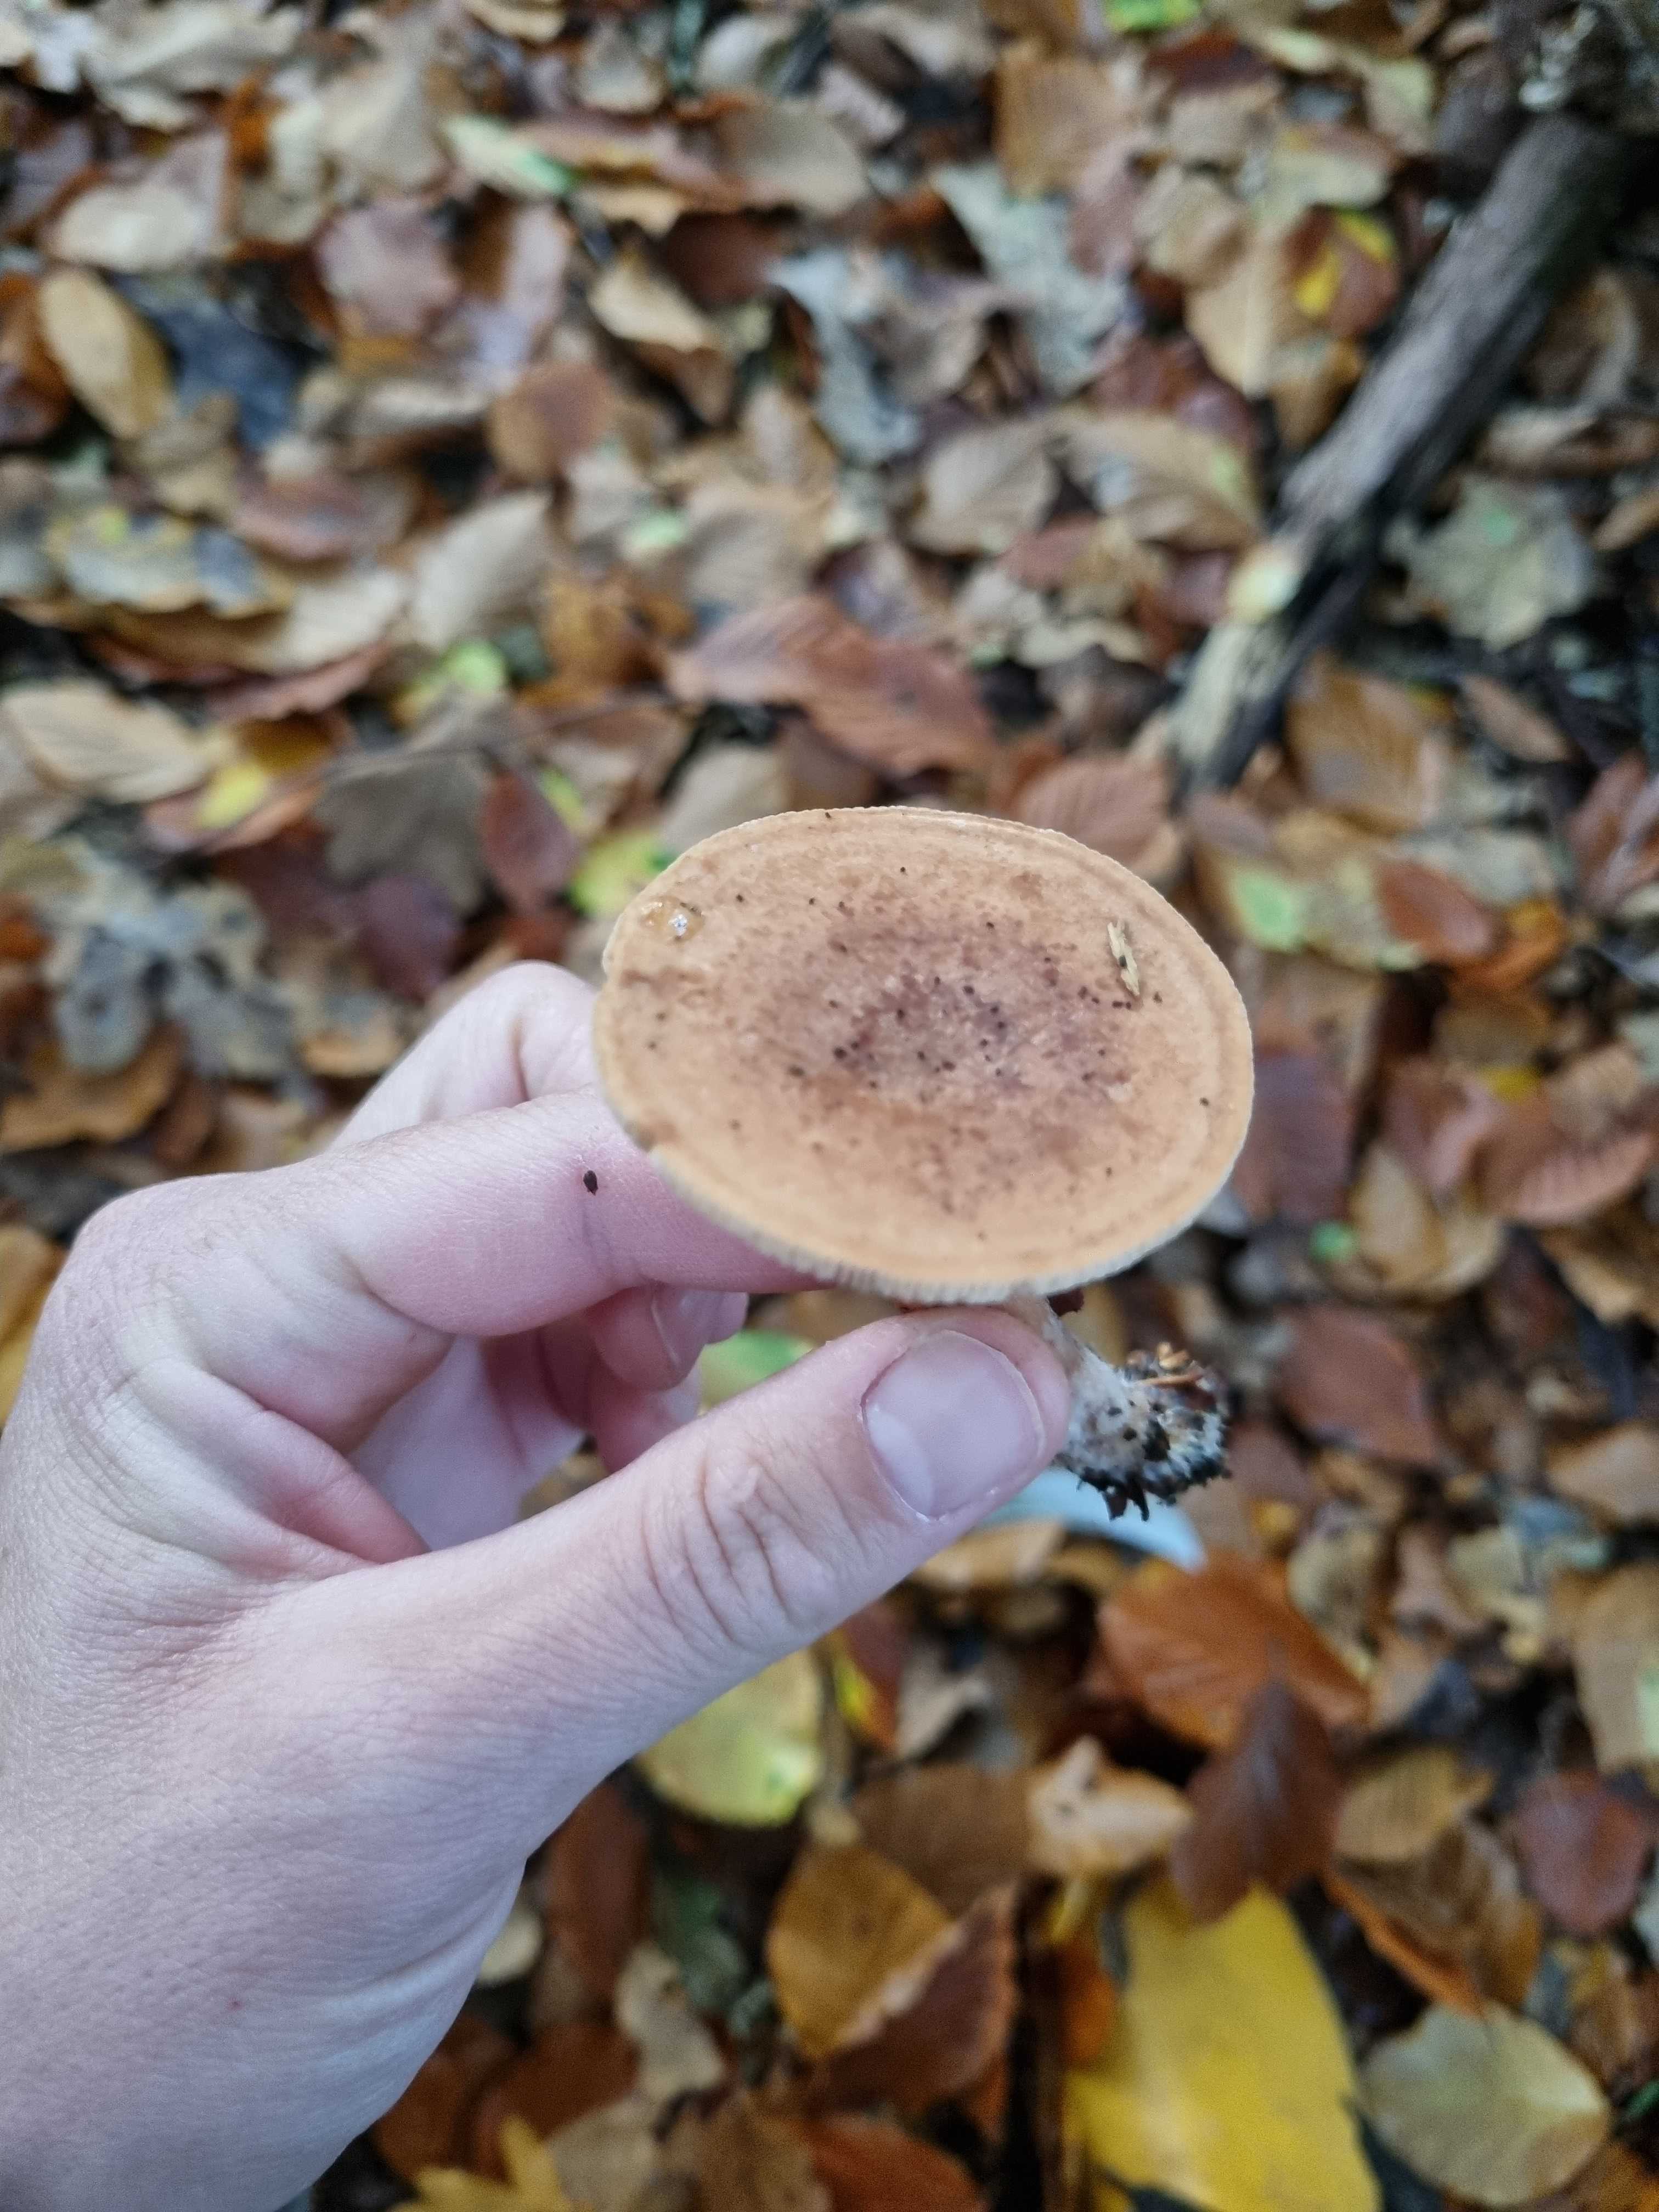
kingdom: Fungi
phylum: Basidiomycota
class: Agaricomycetes
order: Russulales
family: Russulaceae
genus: Lactarius
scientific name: Lactarius quietus
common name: ege-mælkehat
